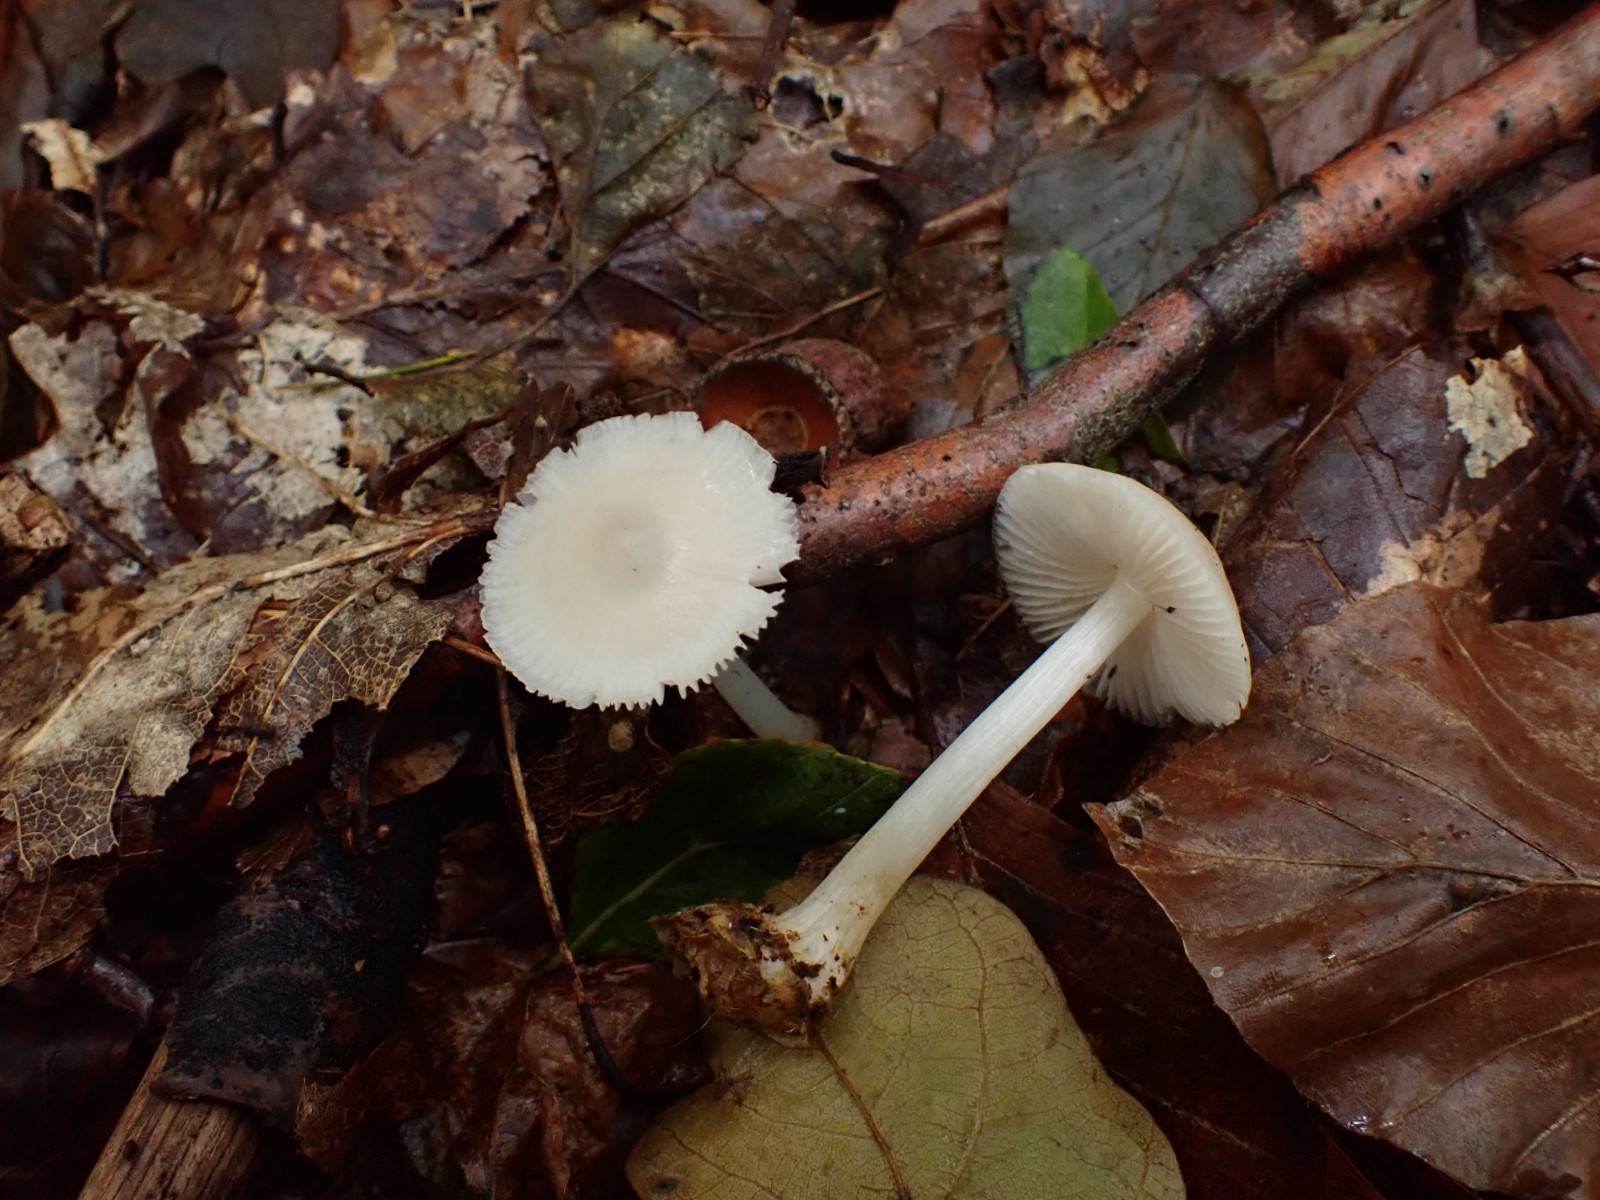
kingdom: Fungi
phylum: Basidiomycota
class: Agaricomycetes
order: Agaricales
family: Mycenaceae
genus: Mycena
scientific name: Mycena rosea
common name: rosa huesvamp
